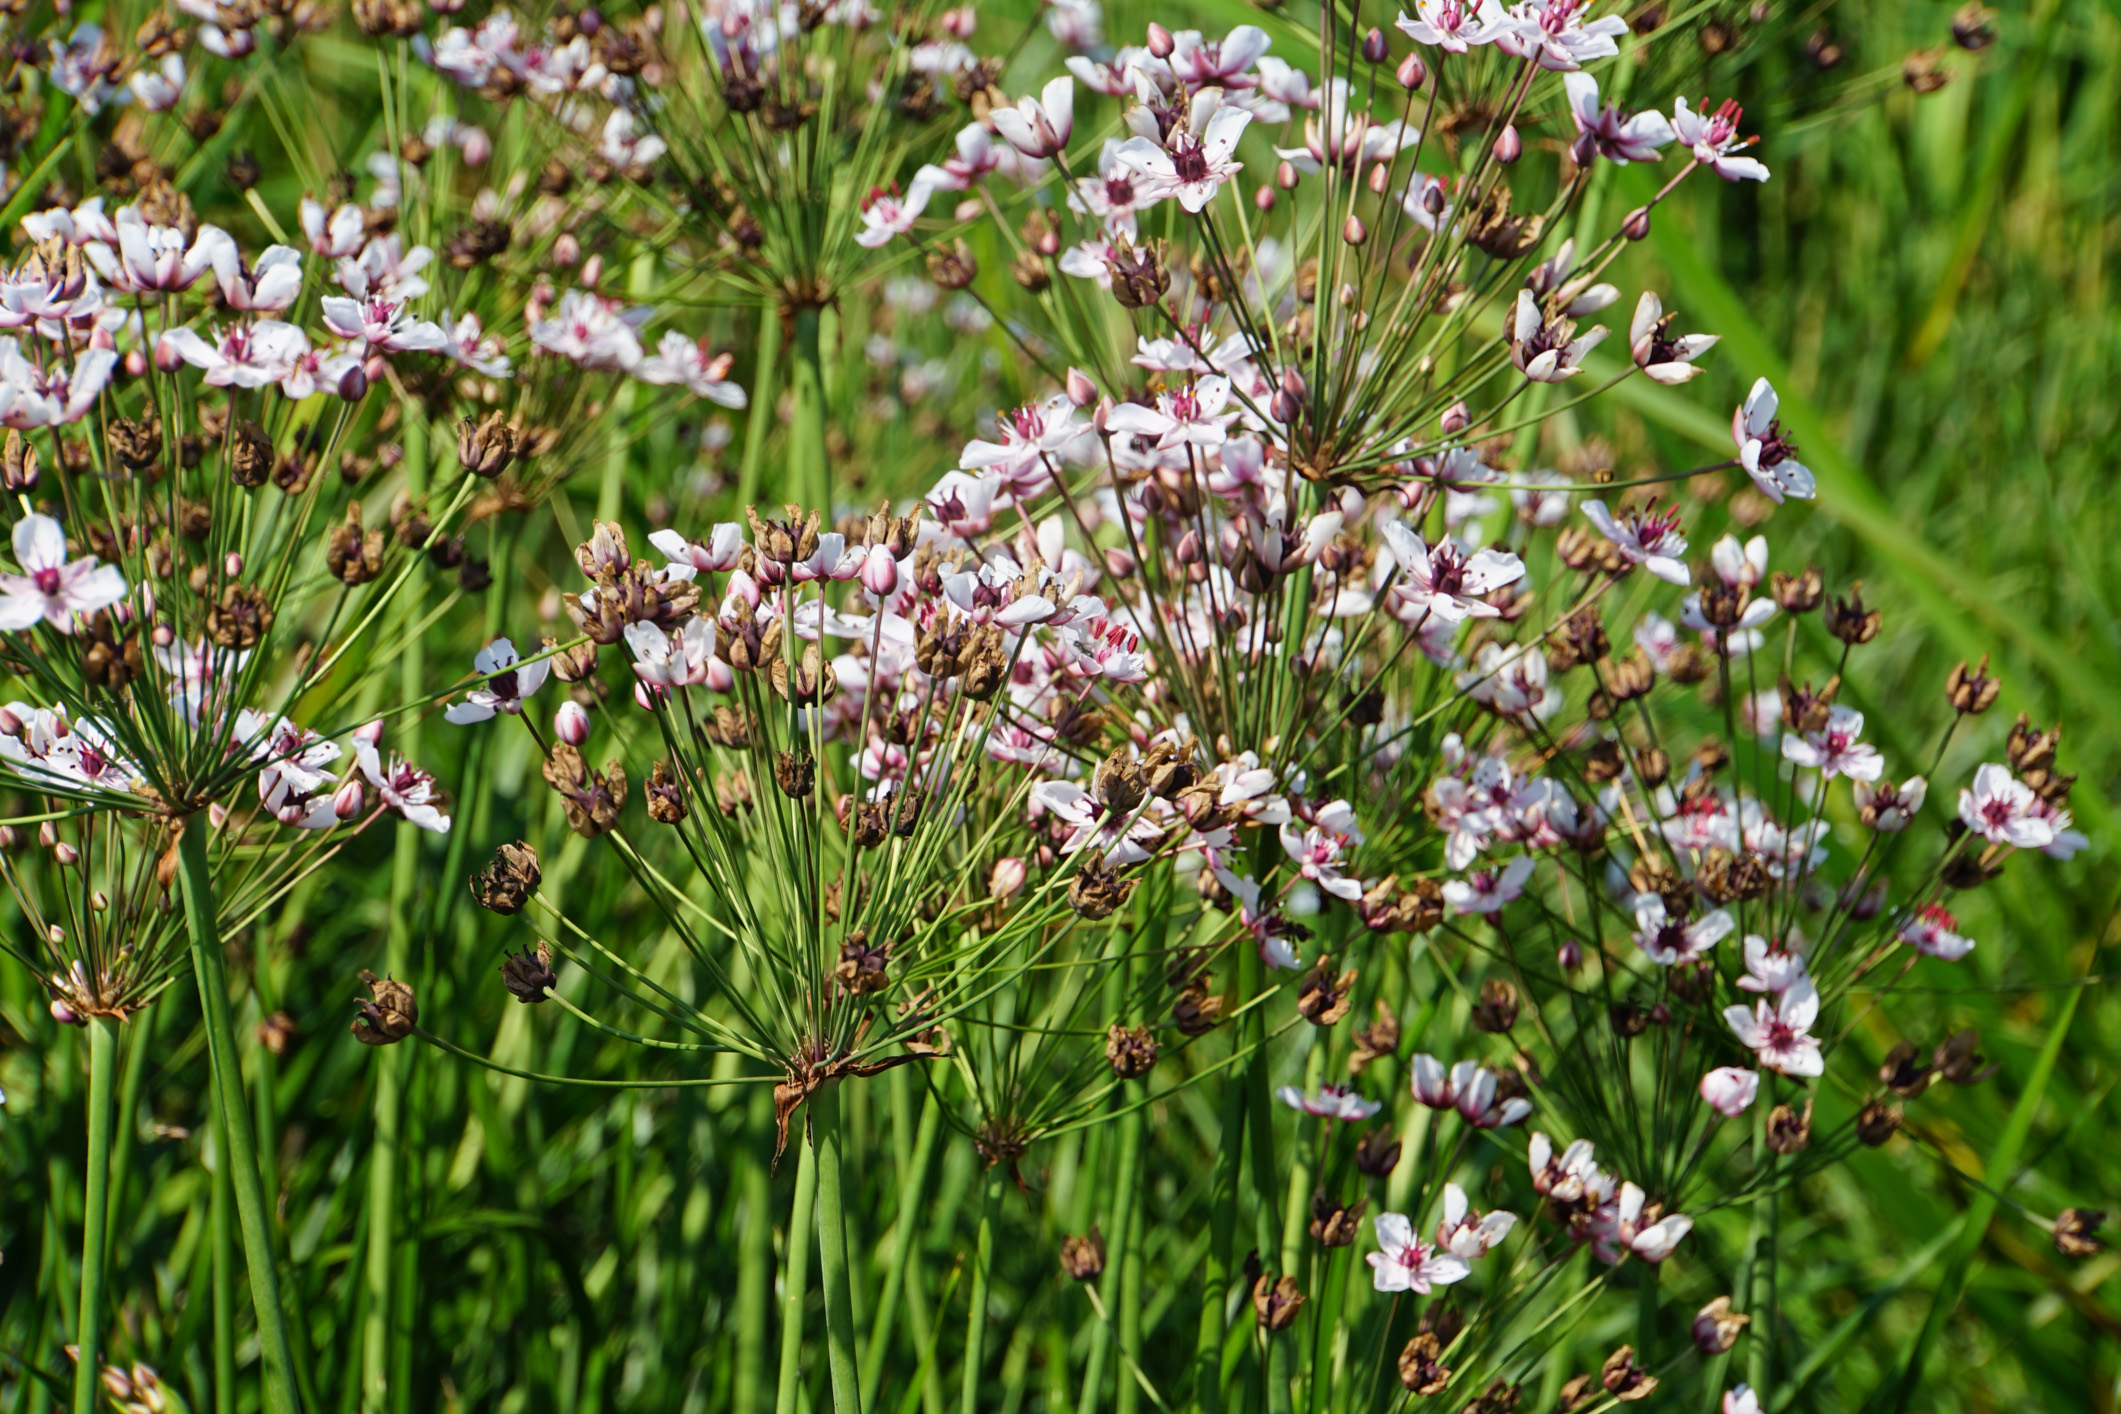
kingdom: Plantae
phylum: Tracheophyta
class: Liliopsida
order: Alismatales
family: Butomaceae
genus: Butomus
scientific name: Butomus umbellatus
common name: Flowering-rush
